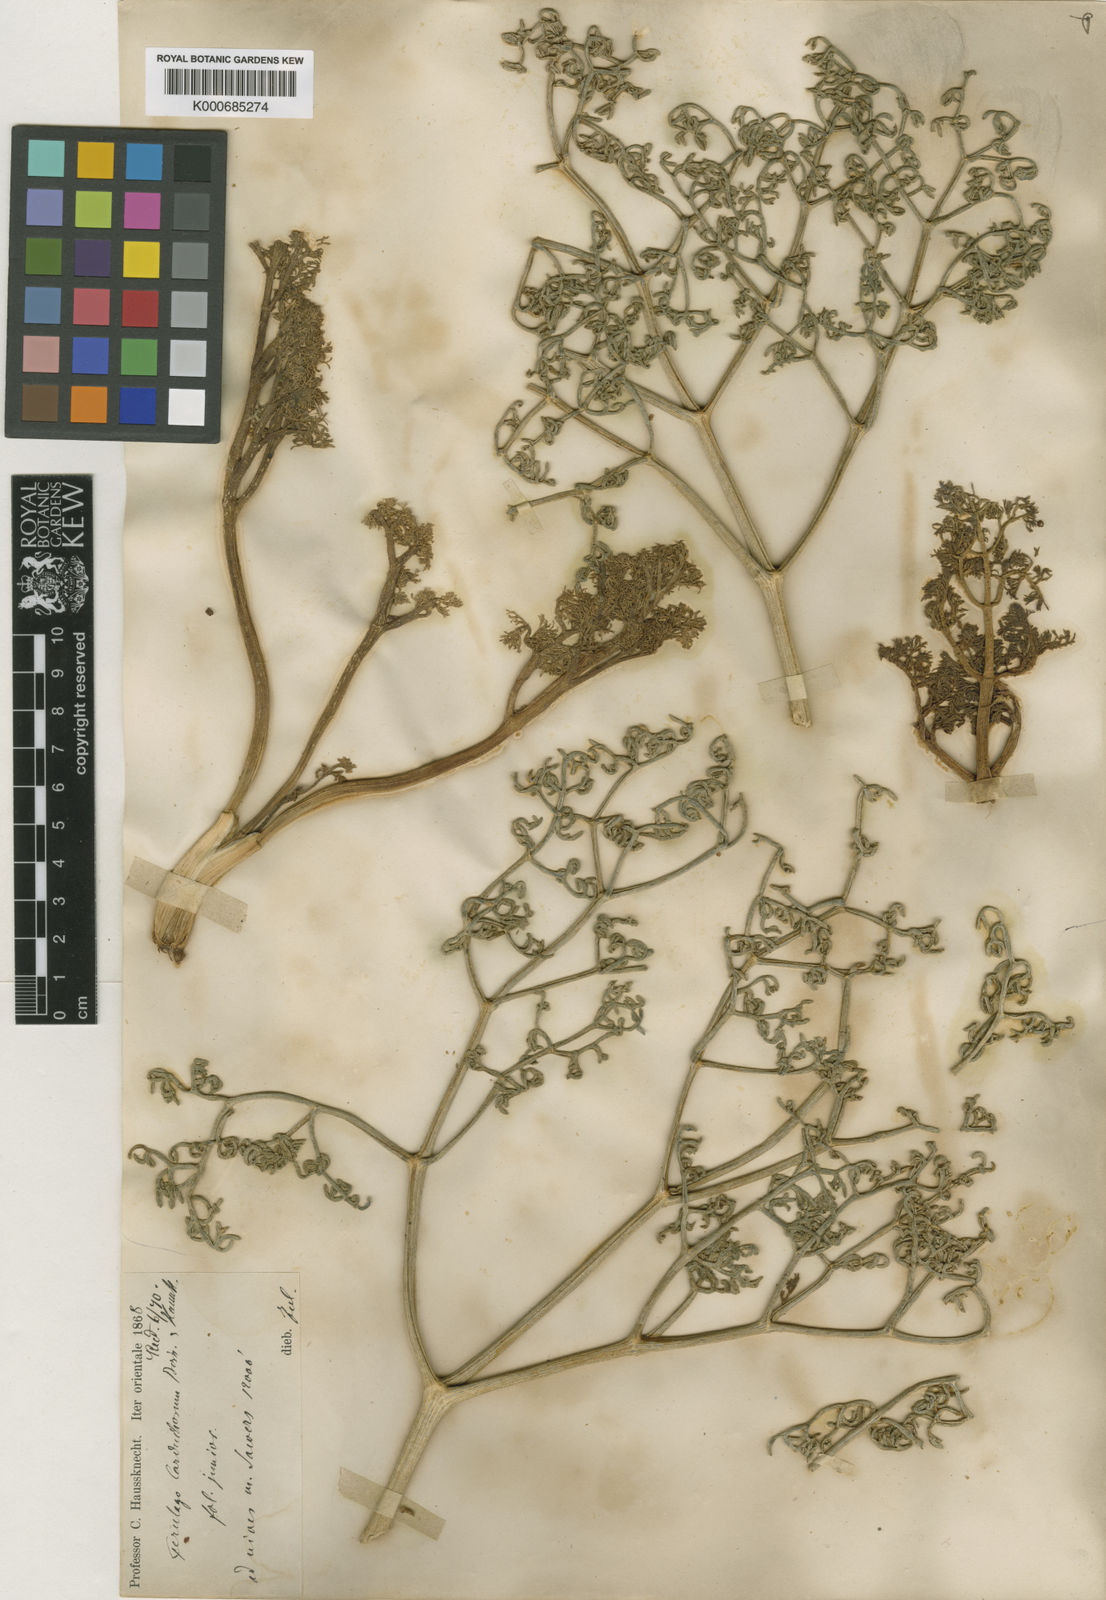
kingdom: Plantae
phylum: Tracheophyta
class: Magnoliopsida
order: Apiales
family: Apiaceae
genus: Ferulago
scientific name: Ferulago carduchorum
